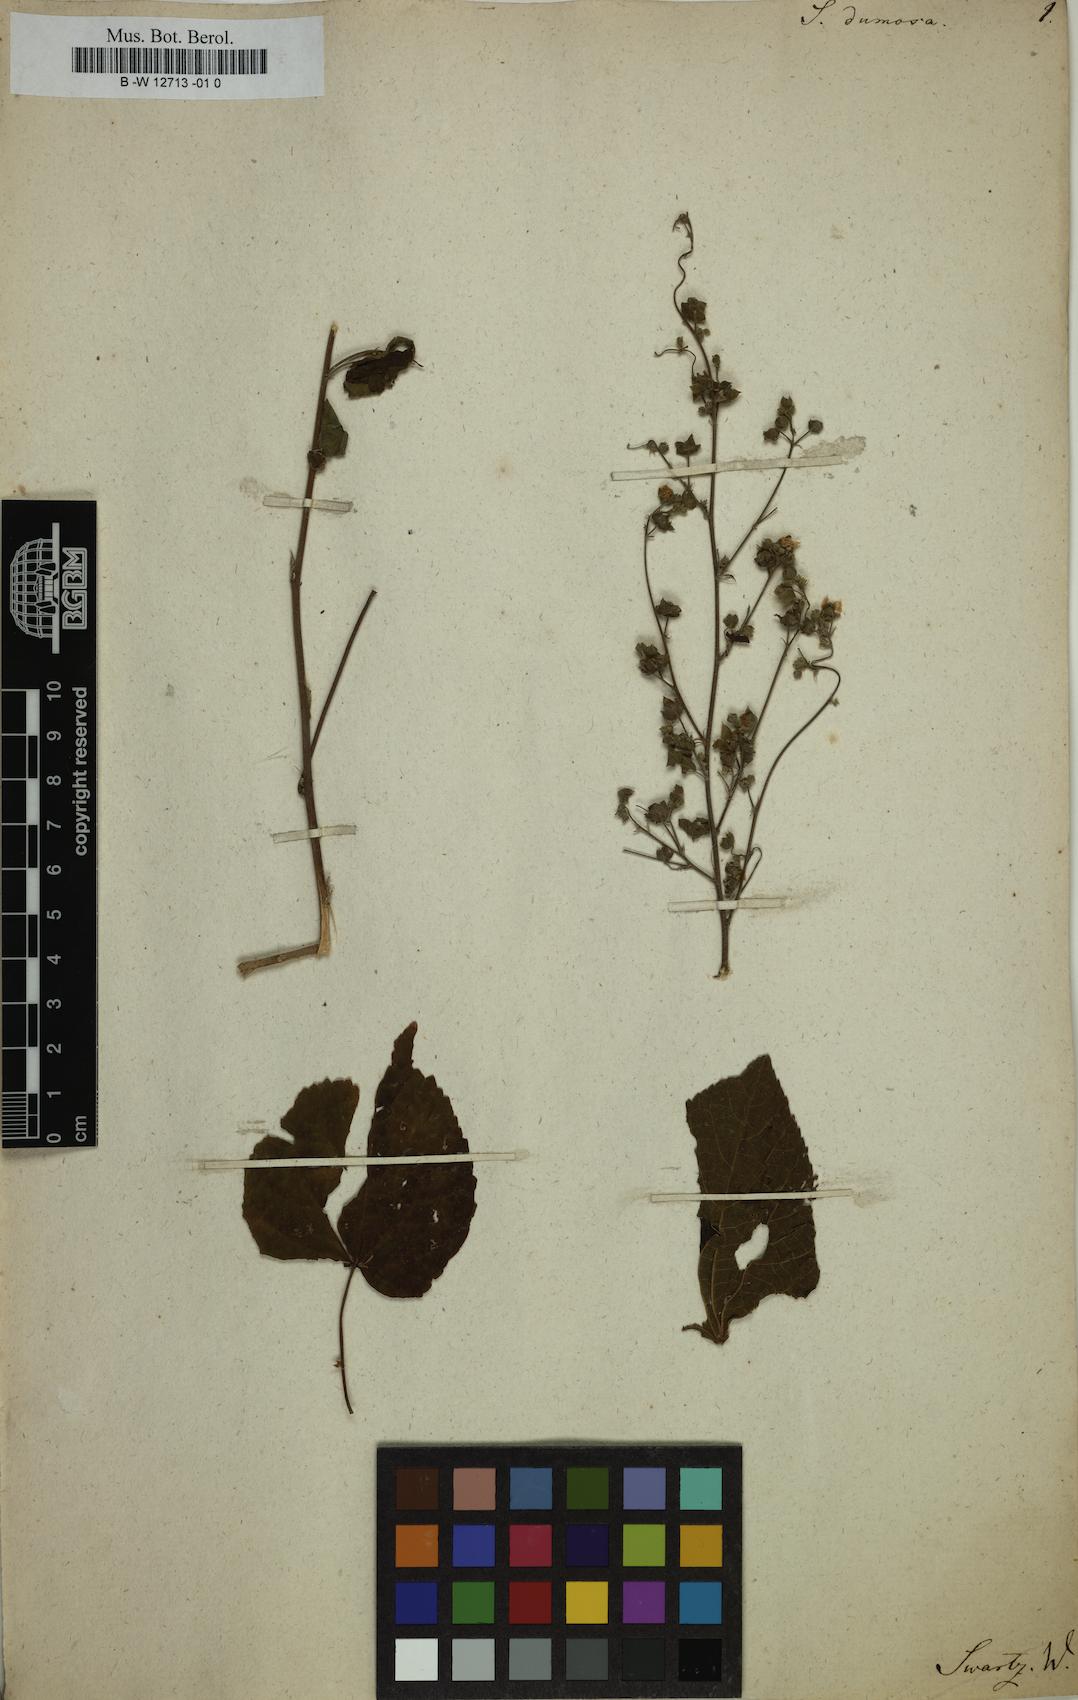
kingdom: Plantae
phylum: Tracheophyta
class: Magnoliopsida
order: Malvales
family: Malvaceae
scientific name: Malvaceae
